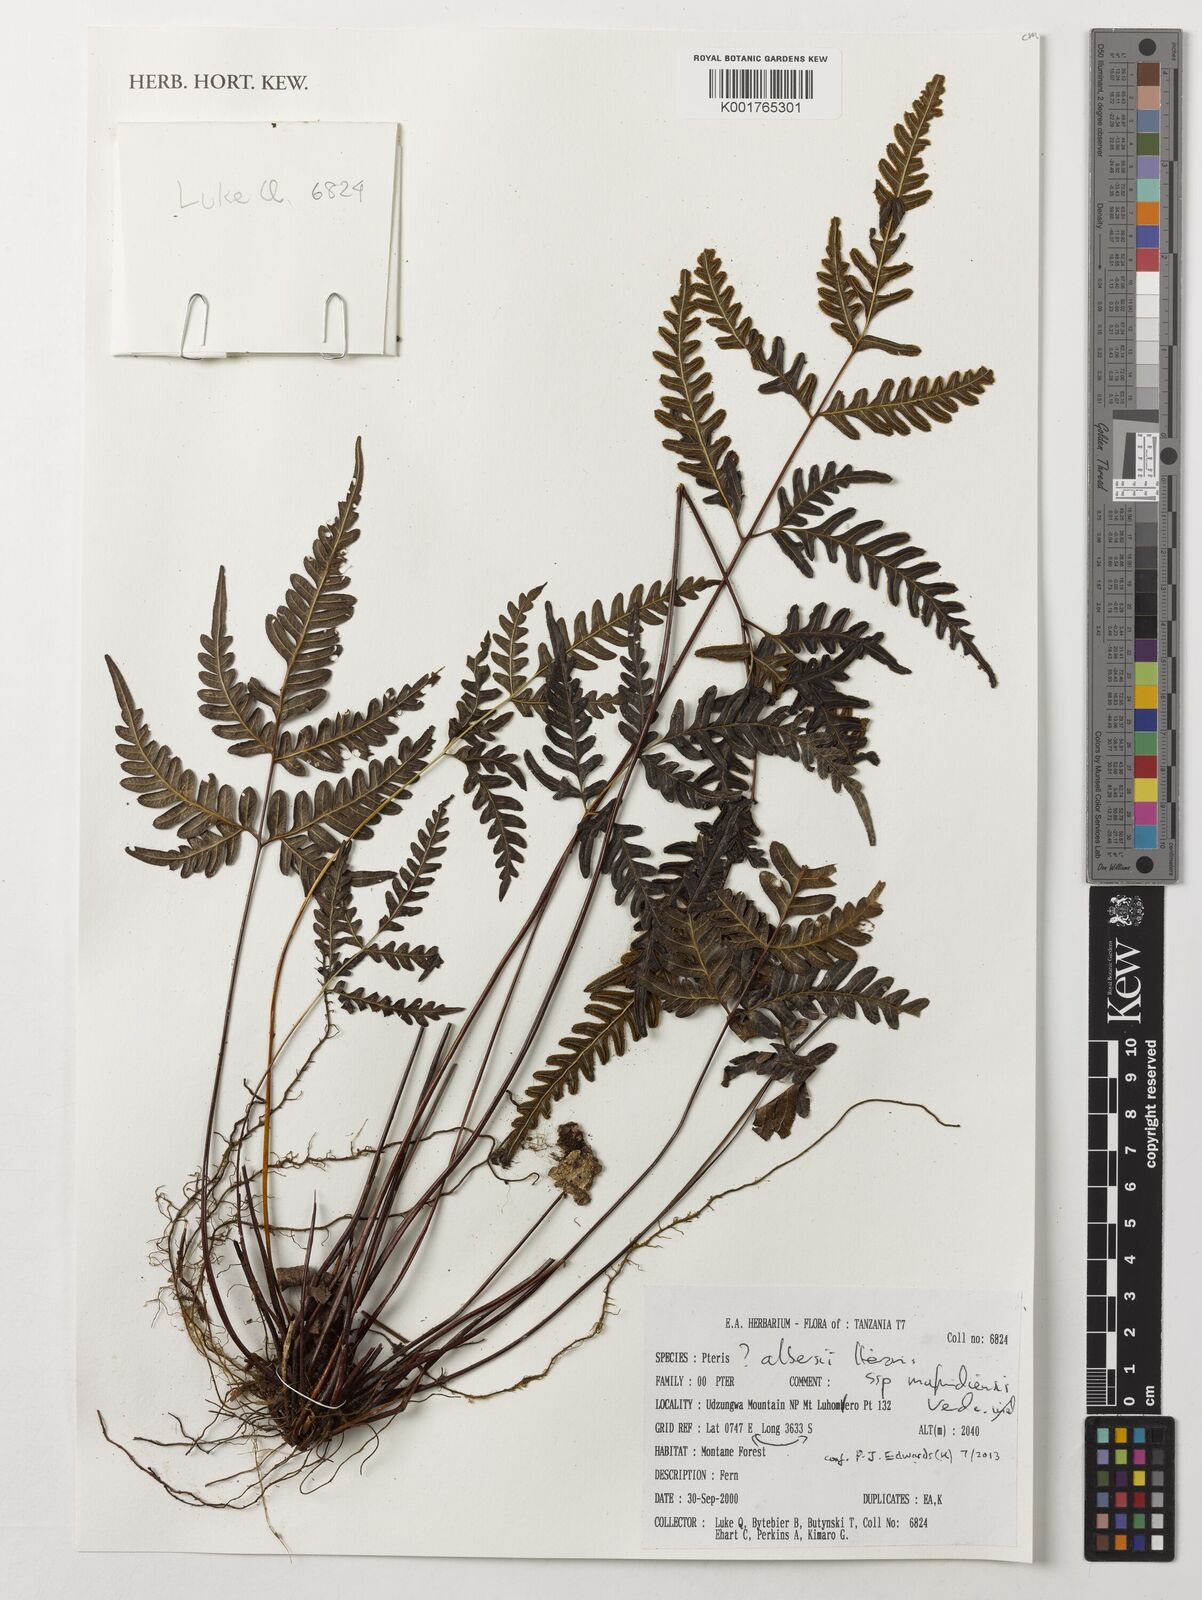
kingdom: Plantae
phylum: Tracheophyta
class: Polypodiopsida
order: Polypodiales
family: Pteridaceae
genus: Pteris
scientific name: Pteris albersii
